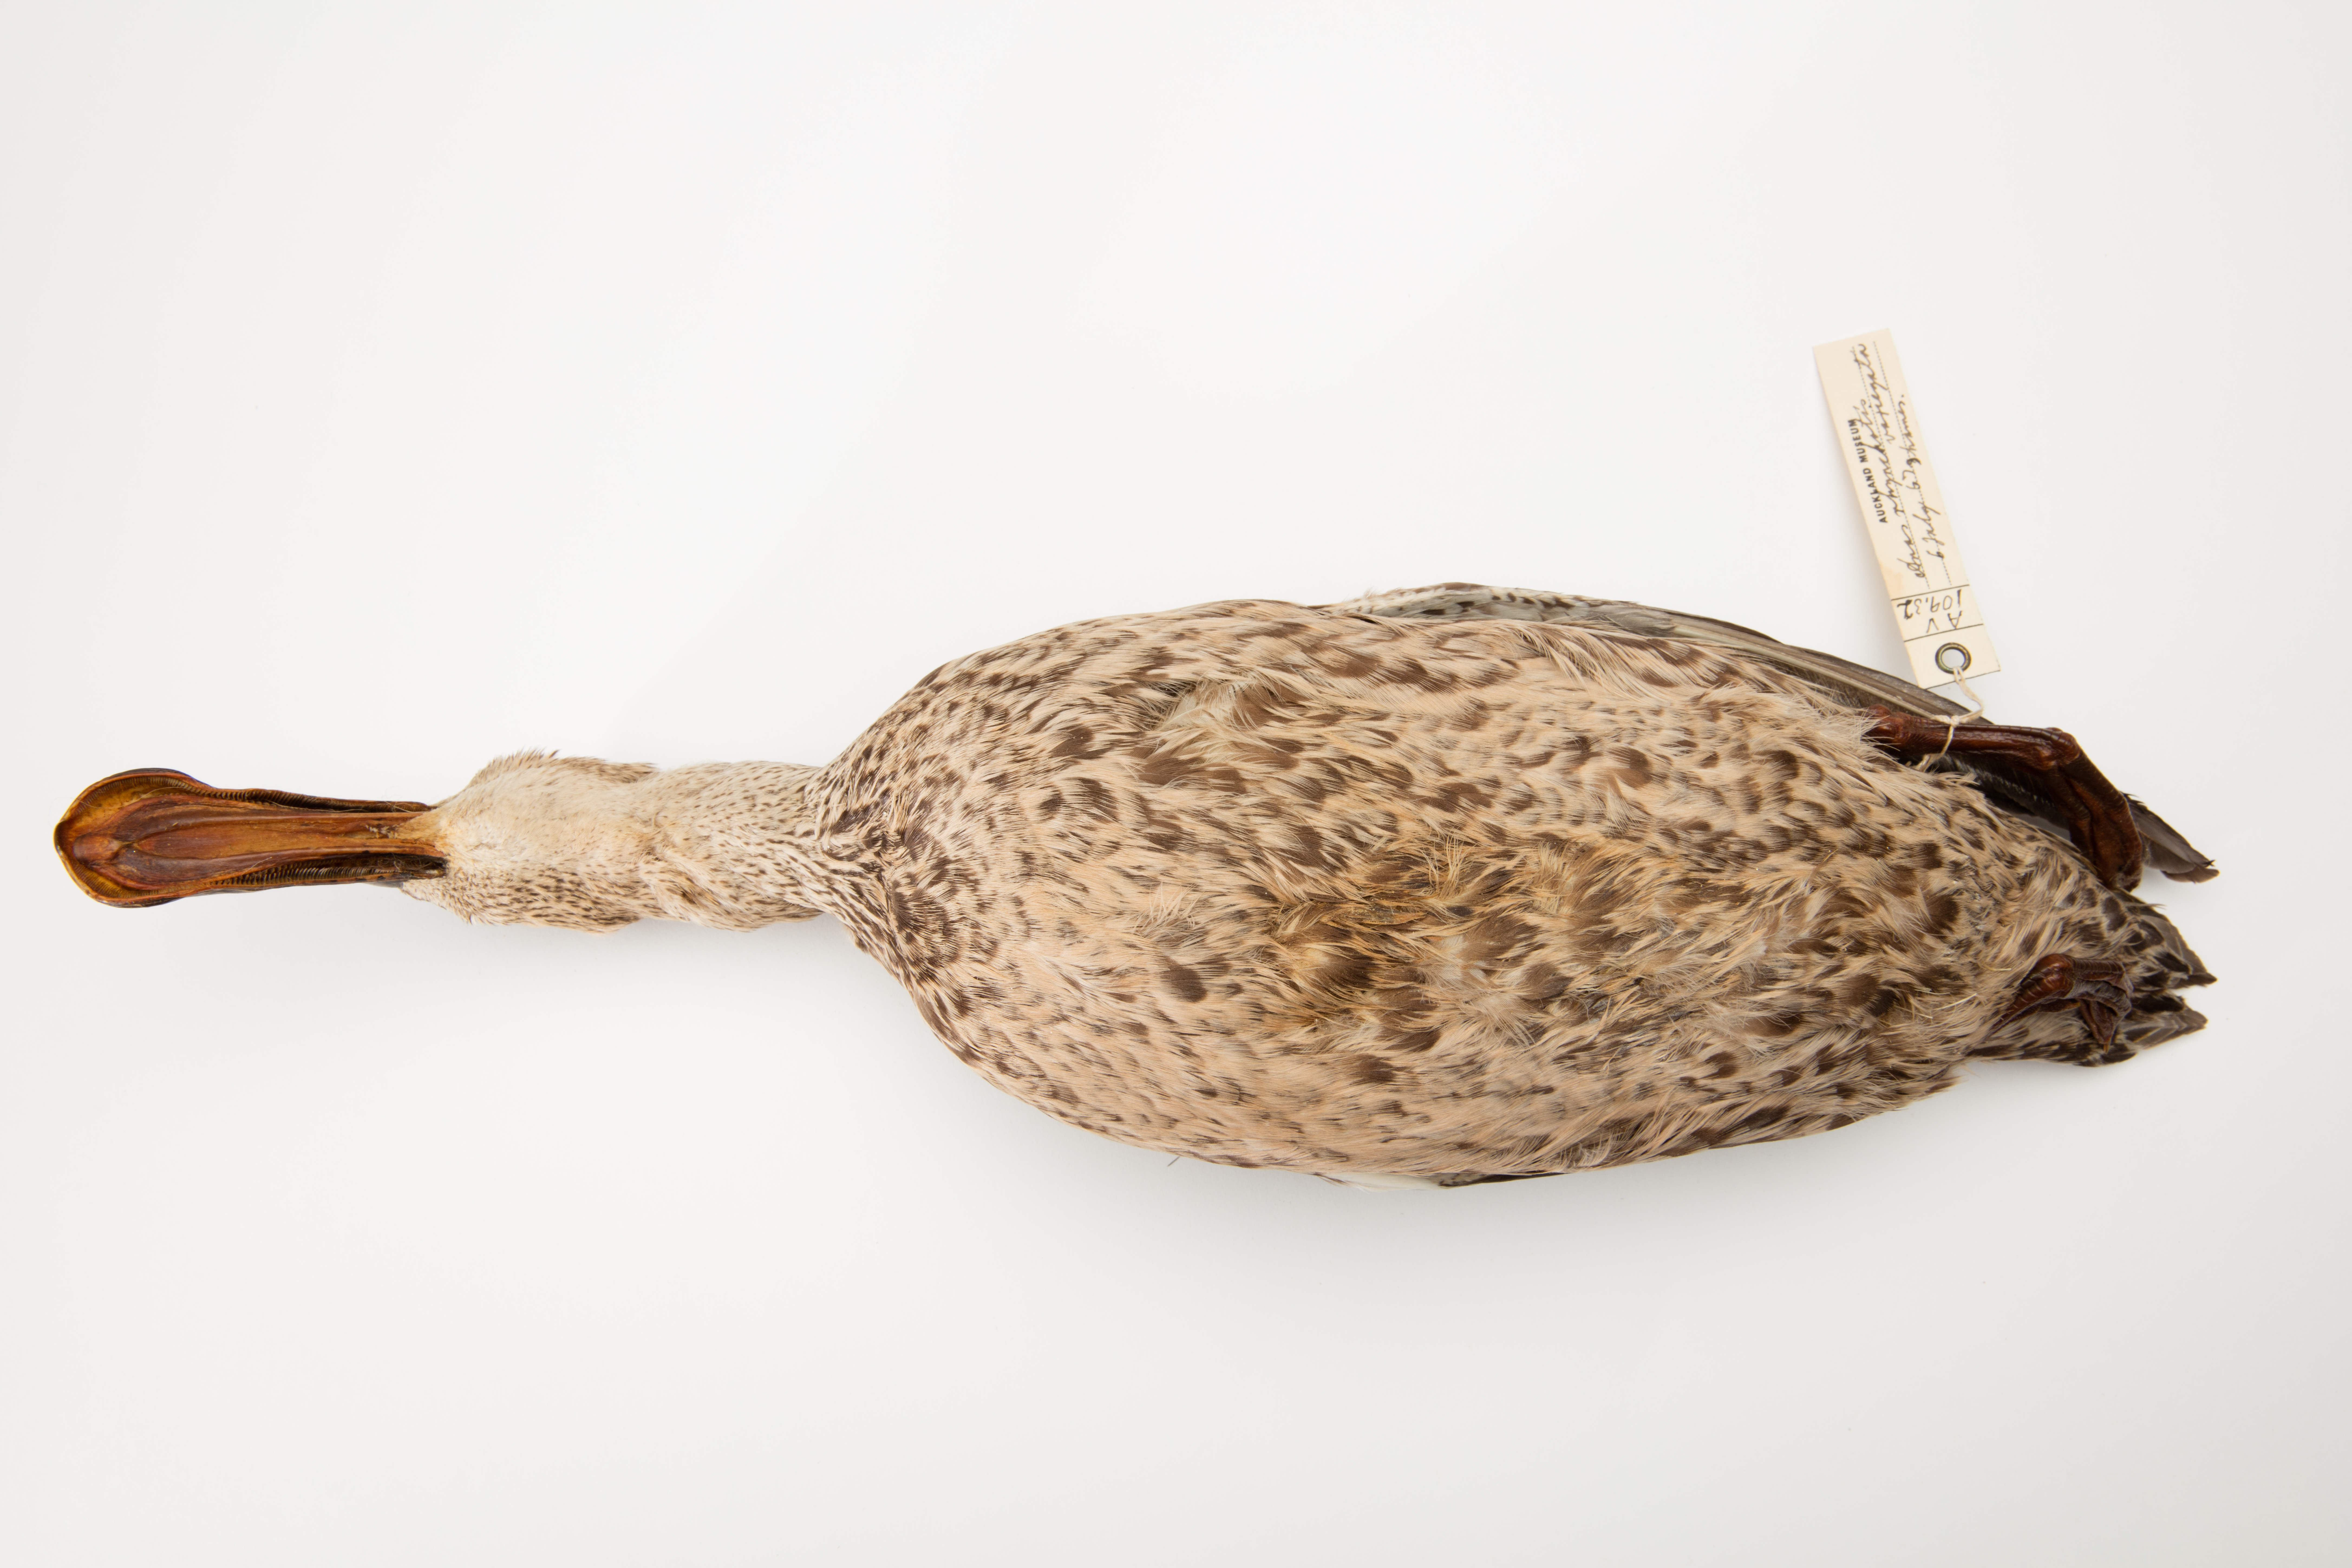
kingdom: Animalia
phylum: Chordata
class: Aves
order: Anseriformes
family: Anatidae
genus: Spatula
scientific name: Spatula rhynchotis
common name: Australian shoveler
